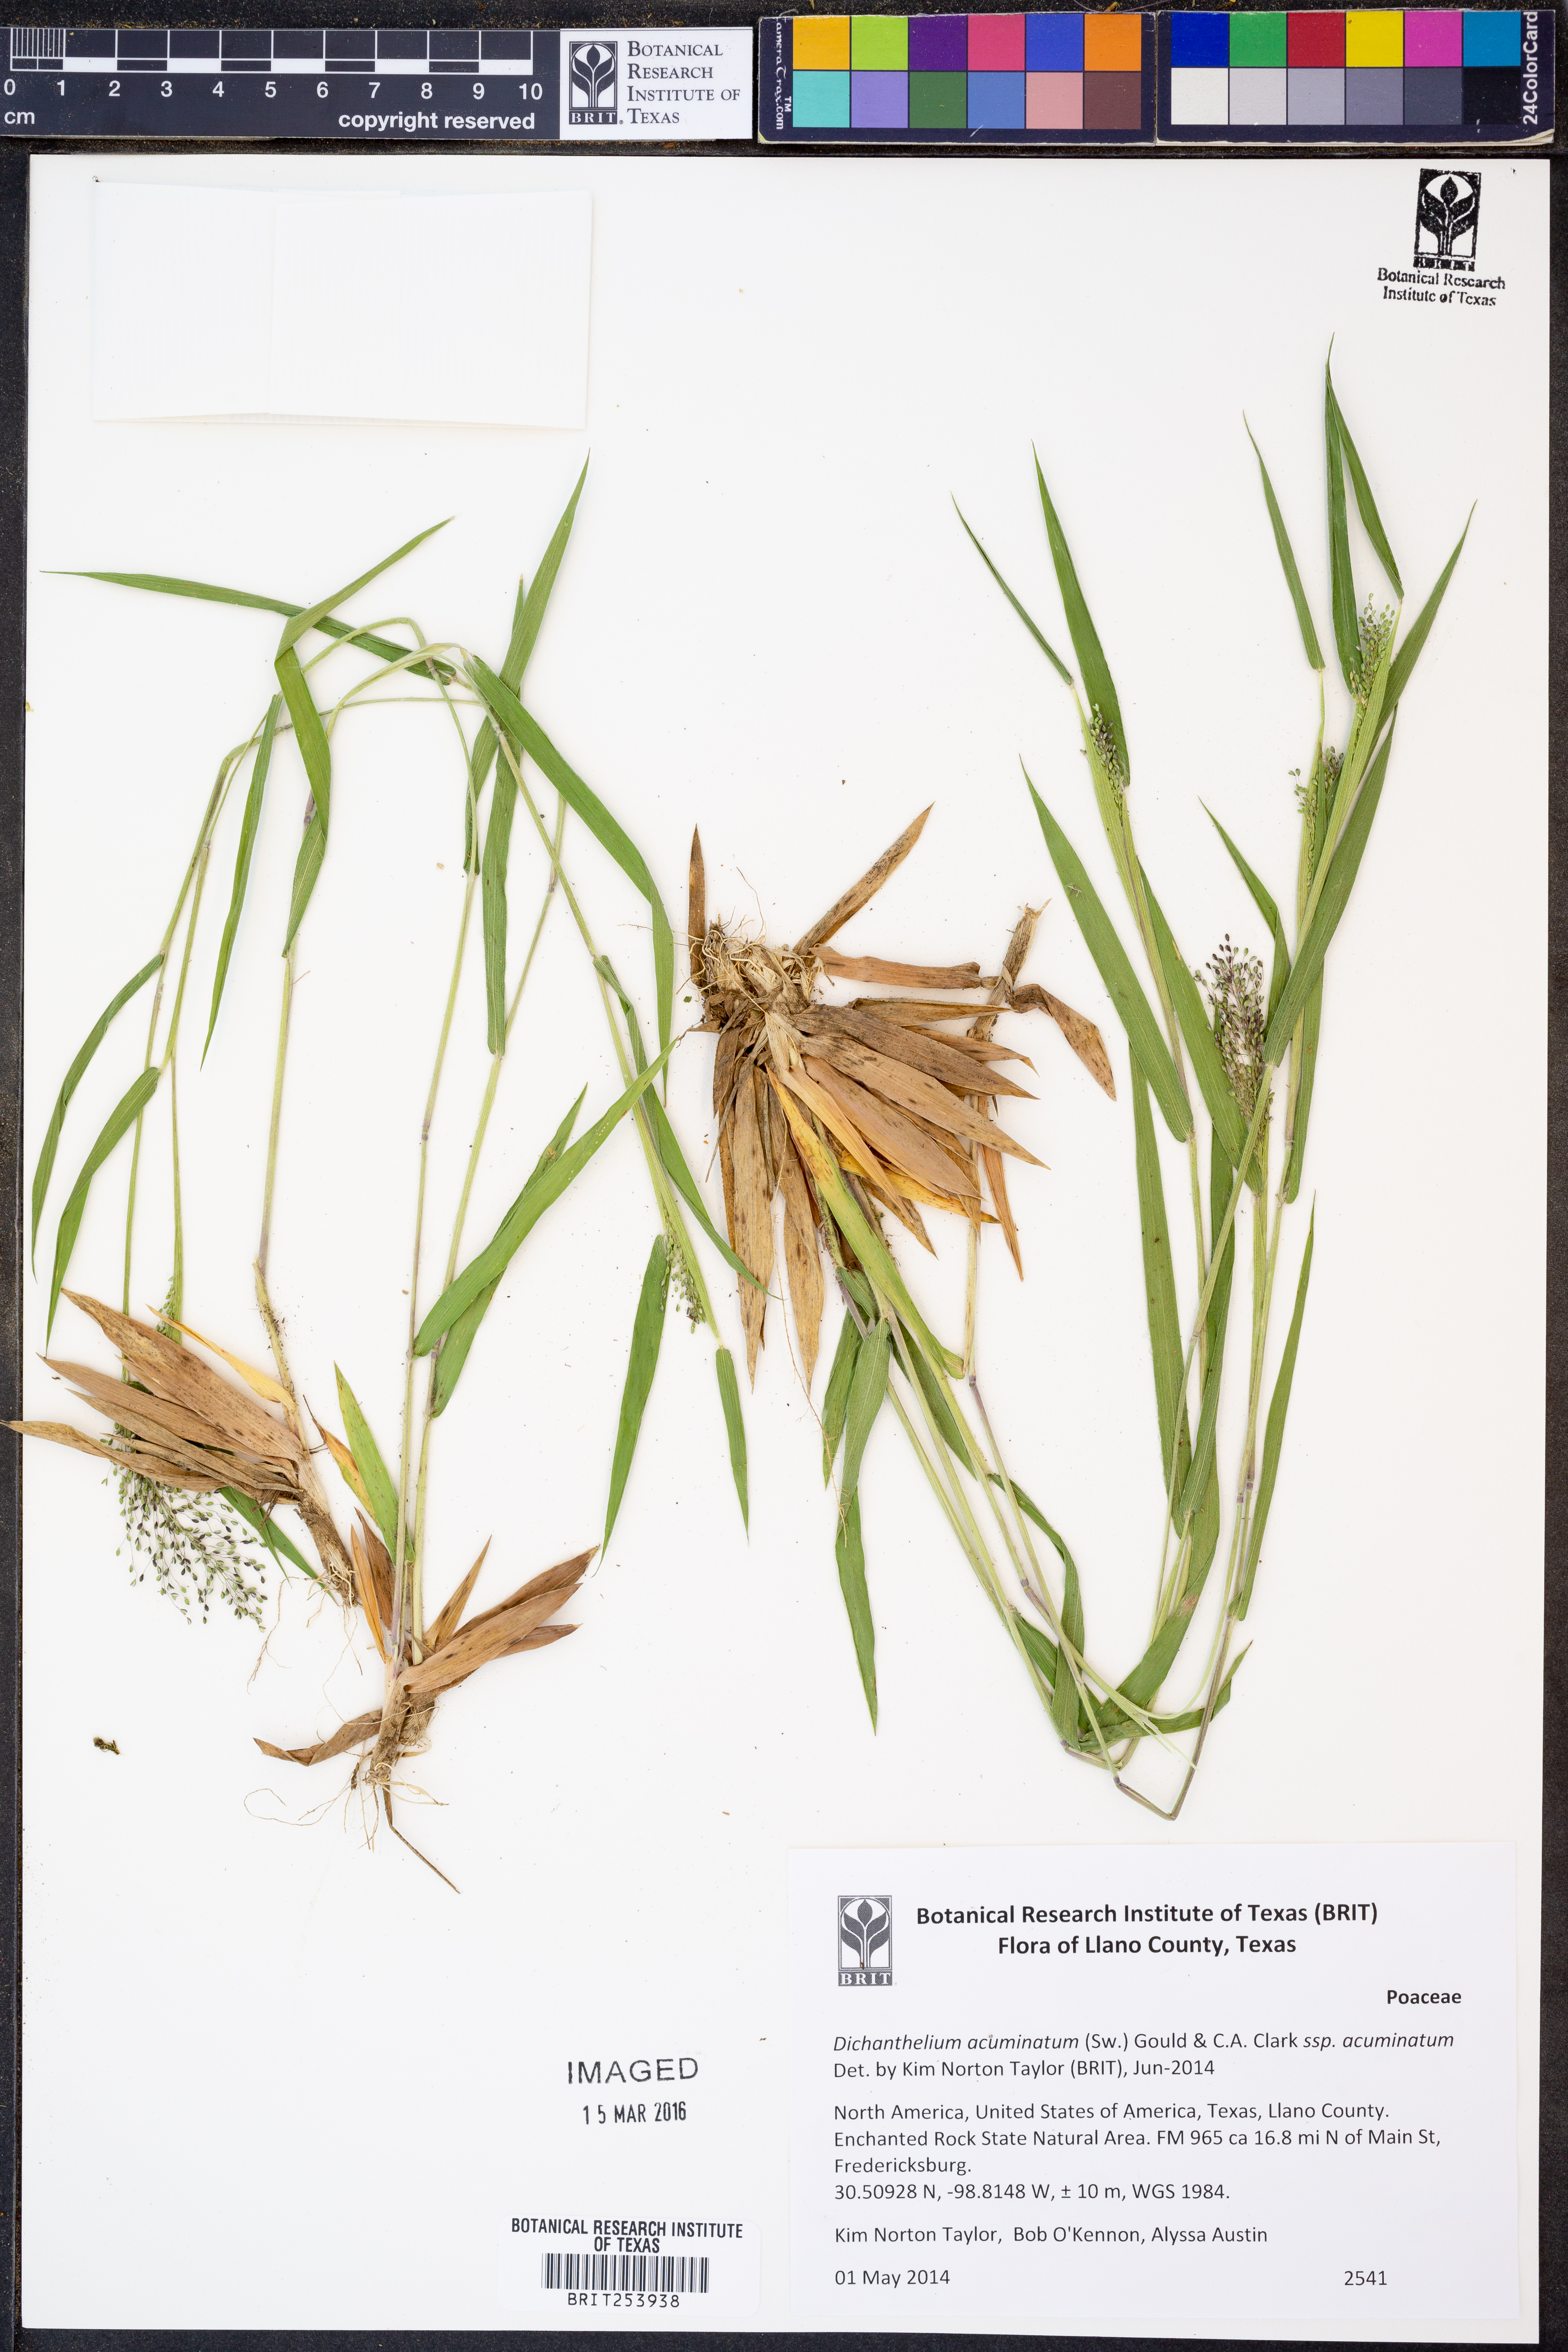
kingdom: Plantae
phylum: Tracheophyta
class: Liliopsida
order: Poales
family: Poaceae
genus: Dichanthelium
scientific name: Dichanthelium acuminatum
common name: Hairy panic grass
